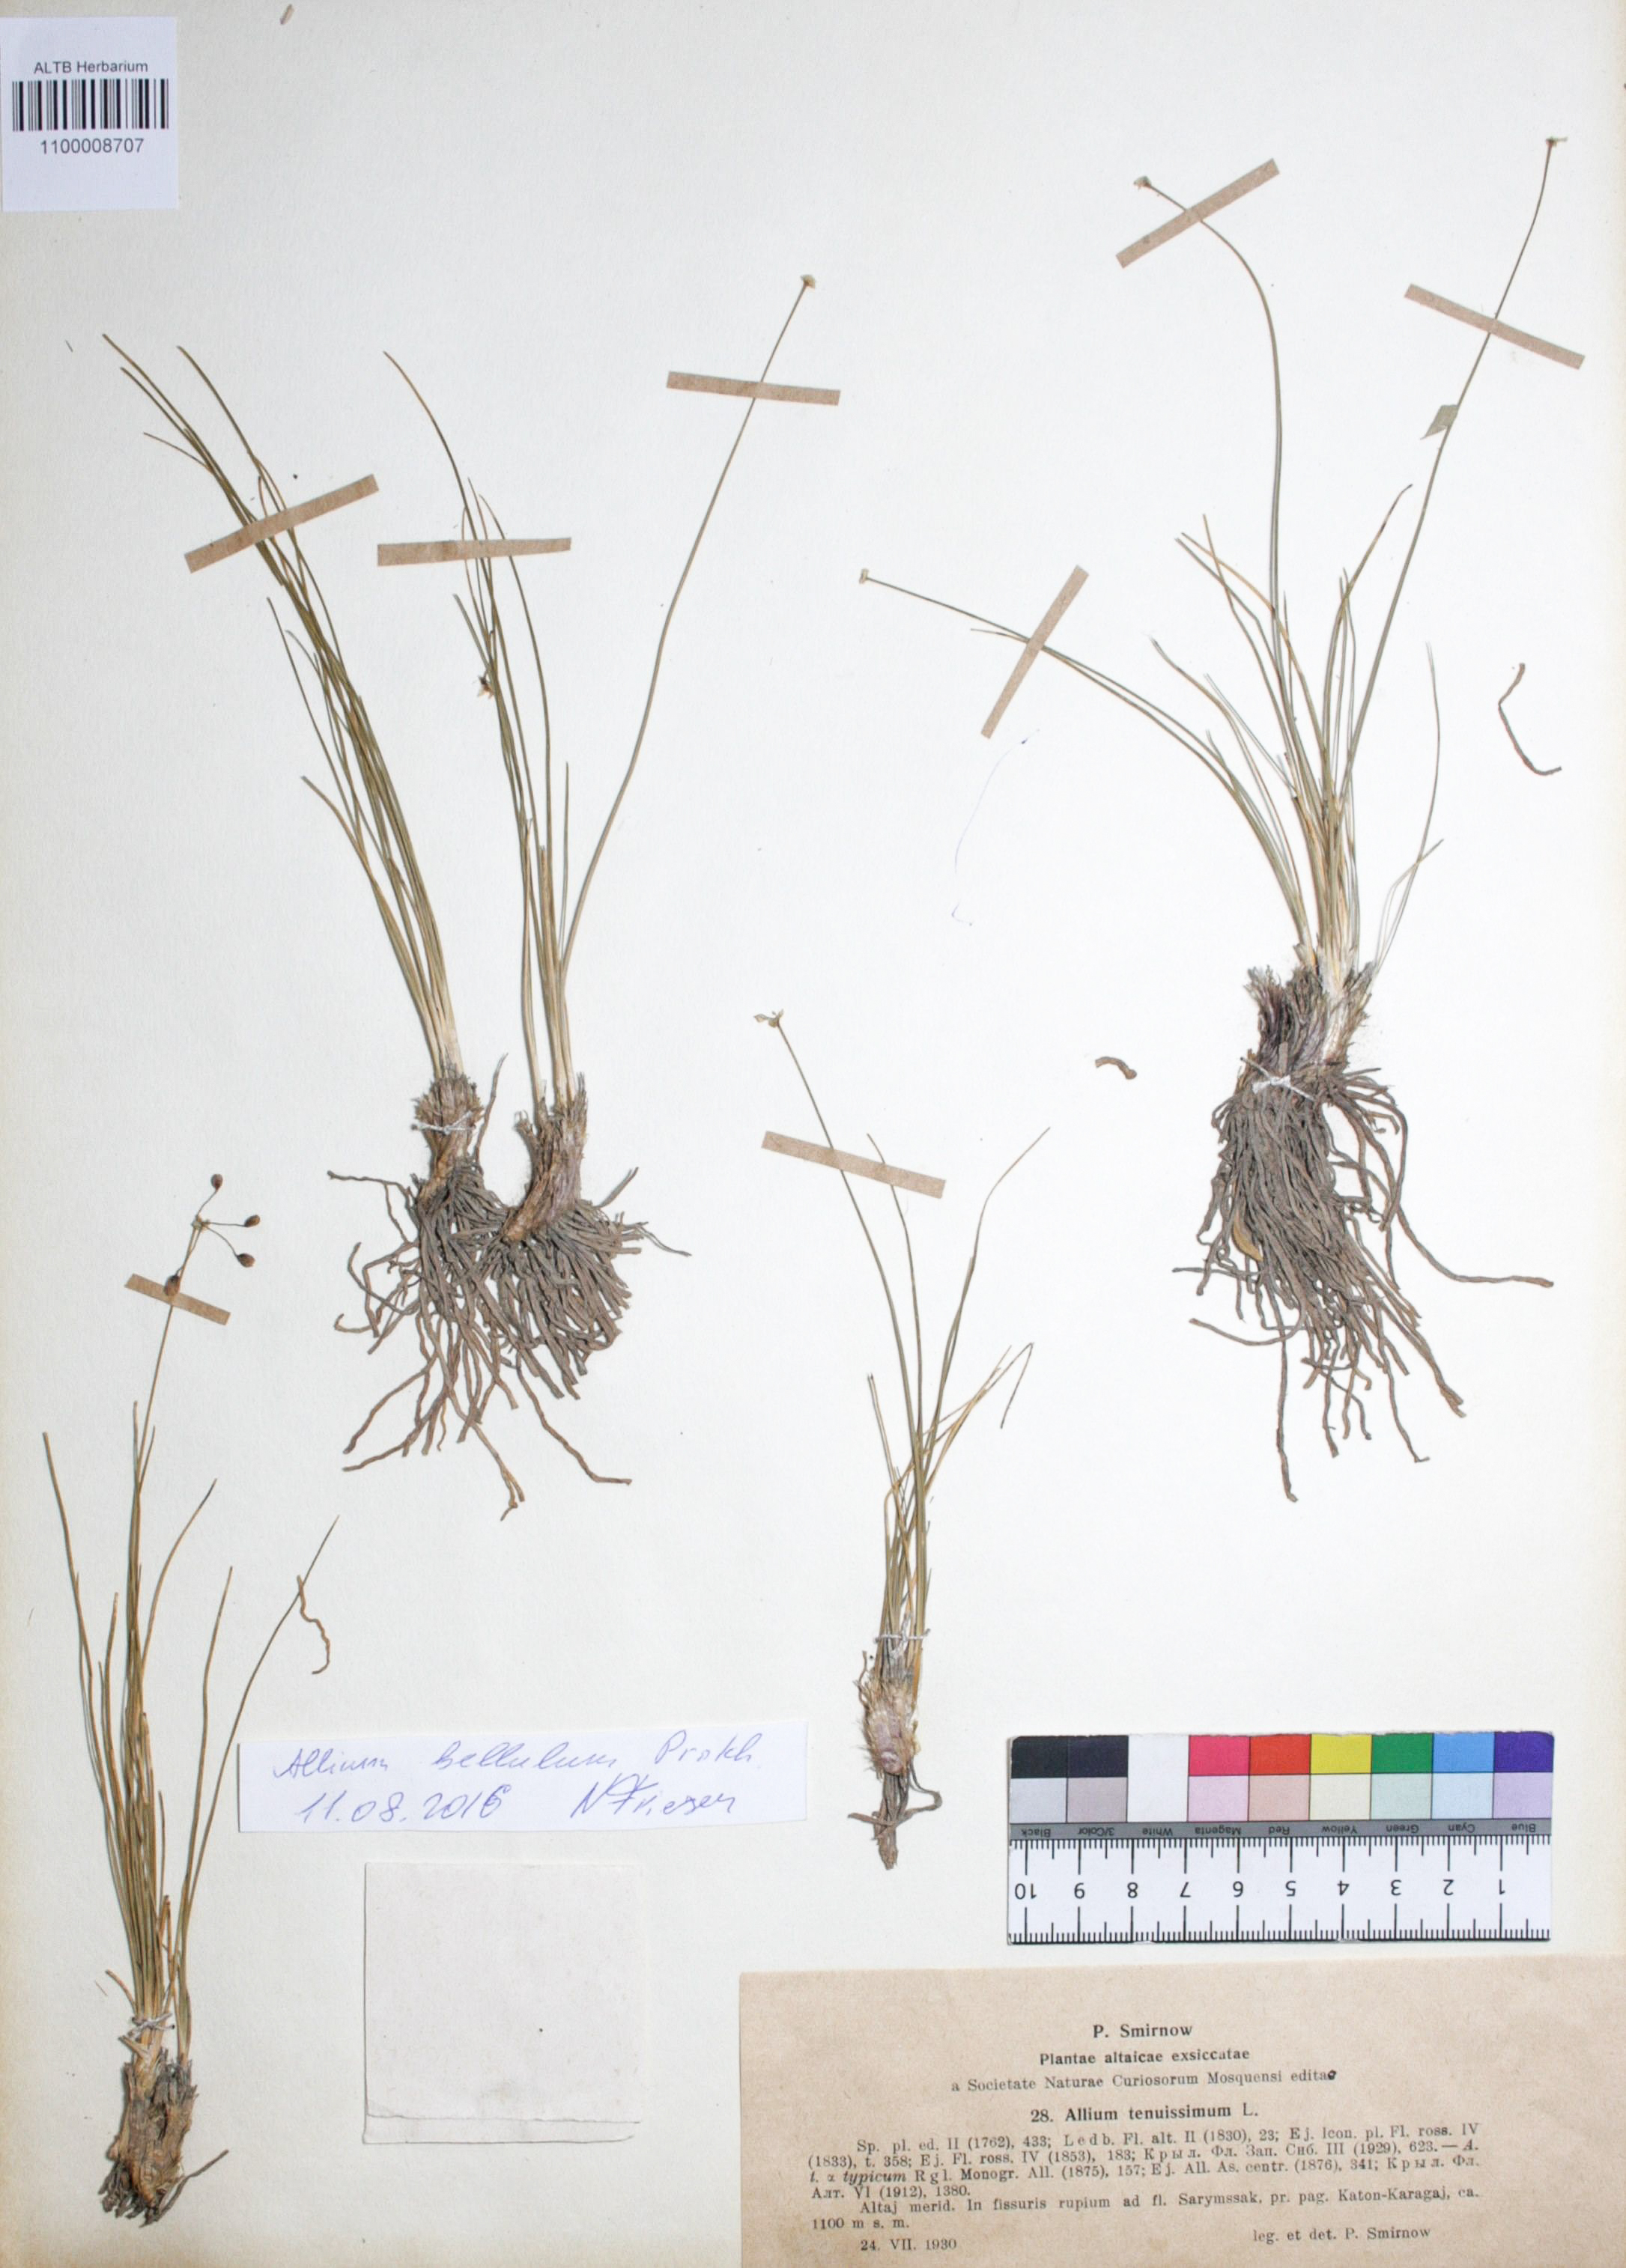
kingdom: Plantae
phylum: Tracheophyta
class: Liliopsida
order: Asparagales
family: Amaryllidaceae
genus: Allium
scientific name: Allium bellulum
